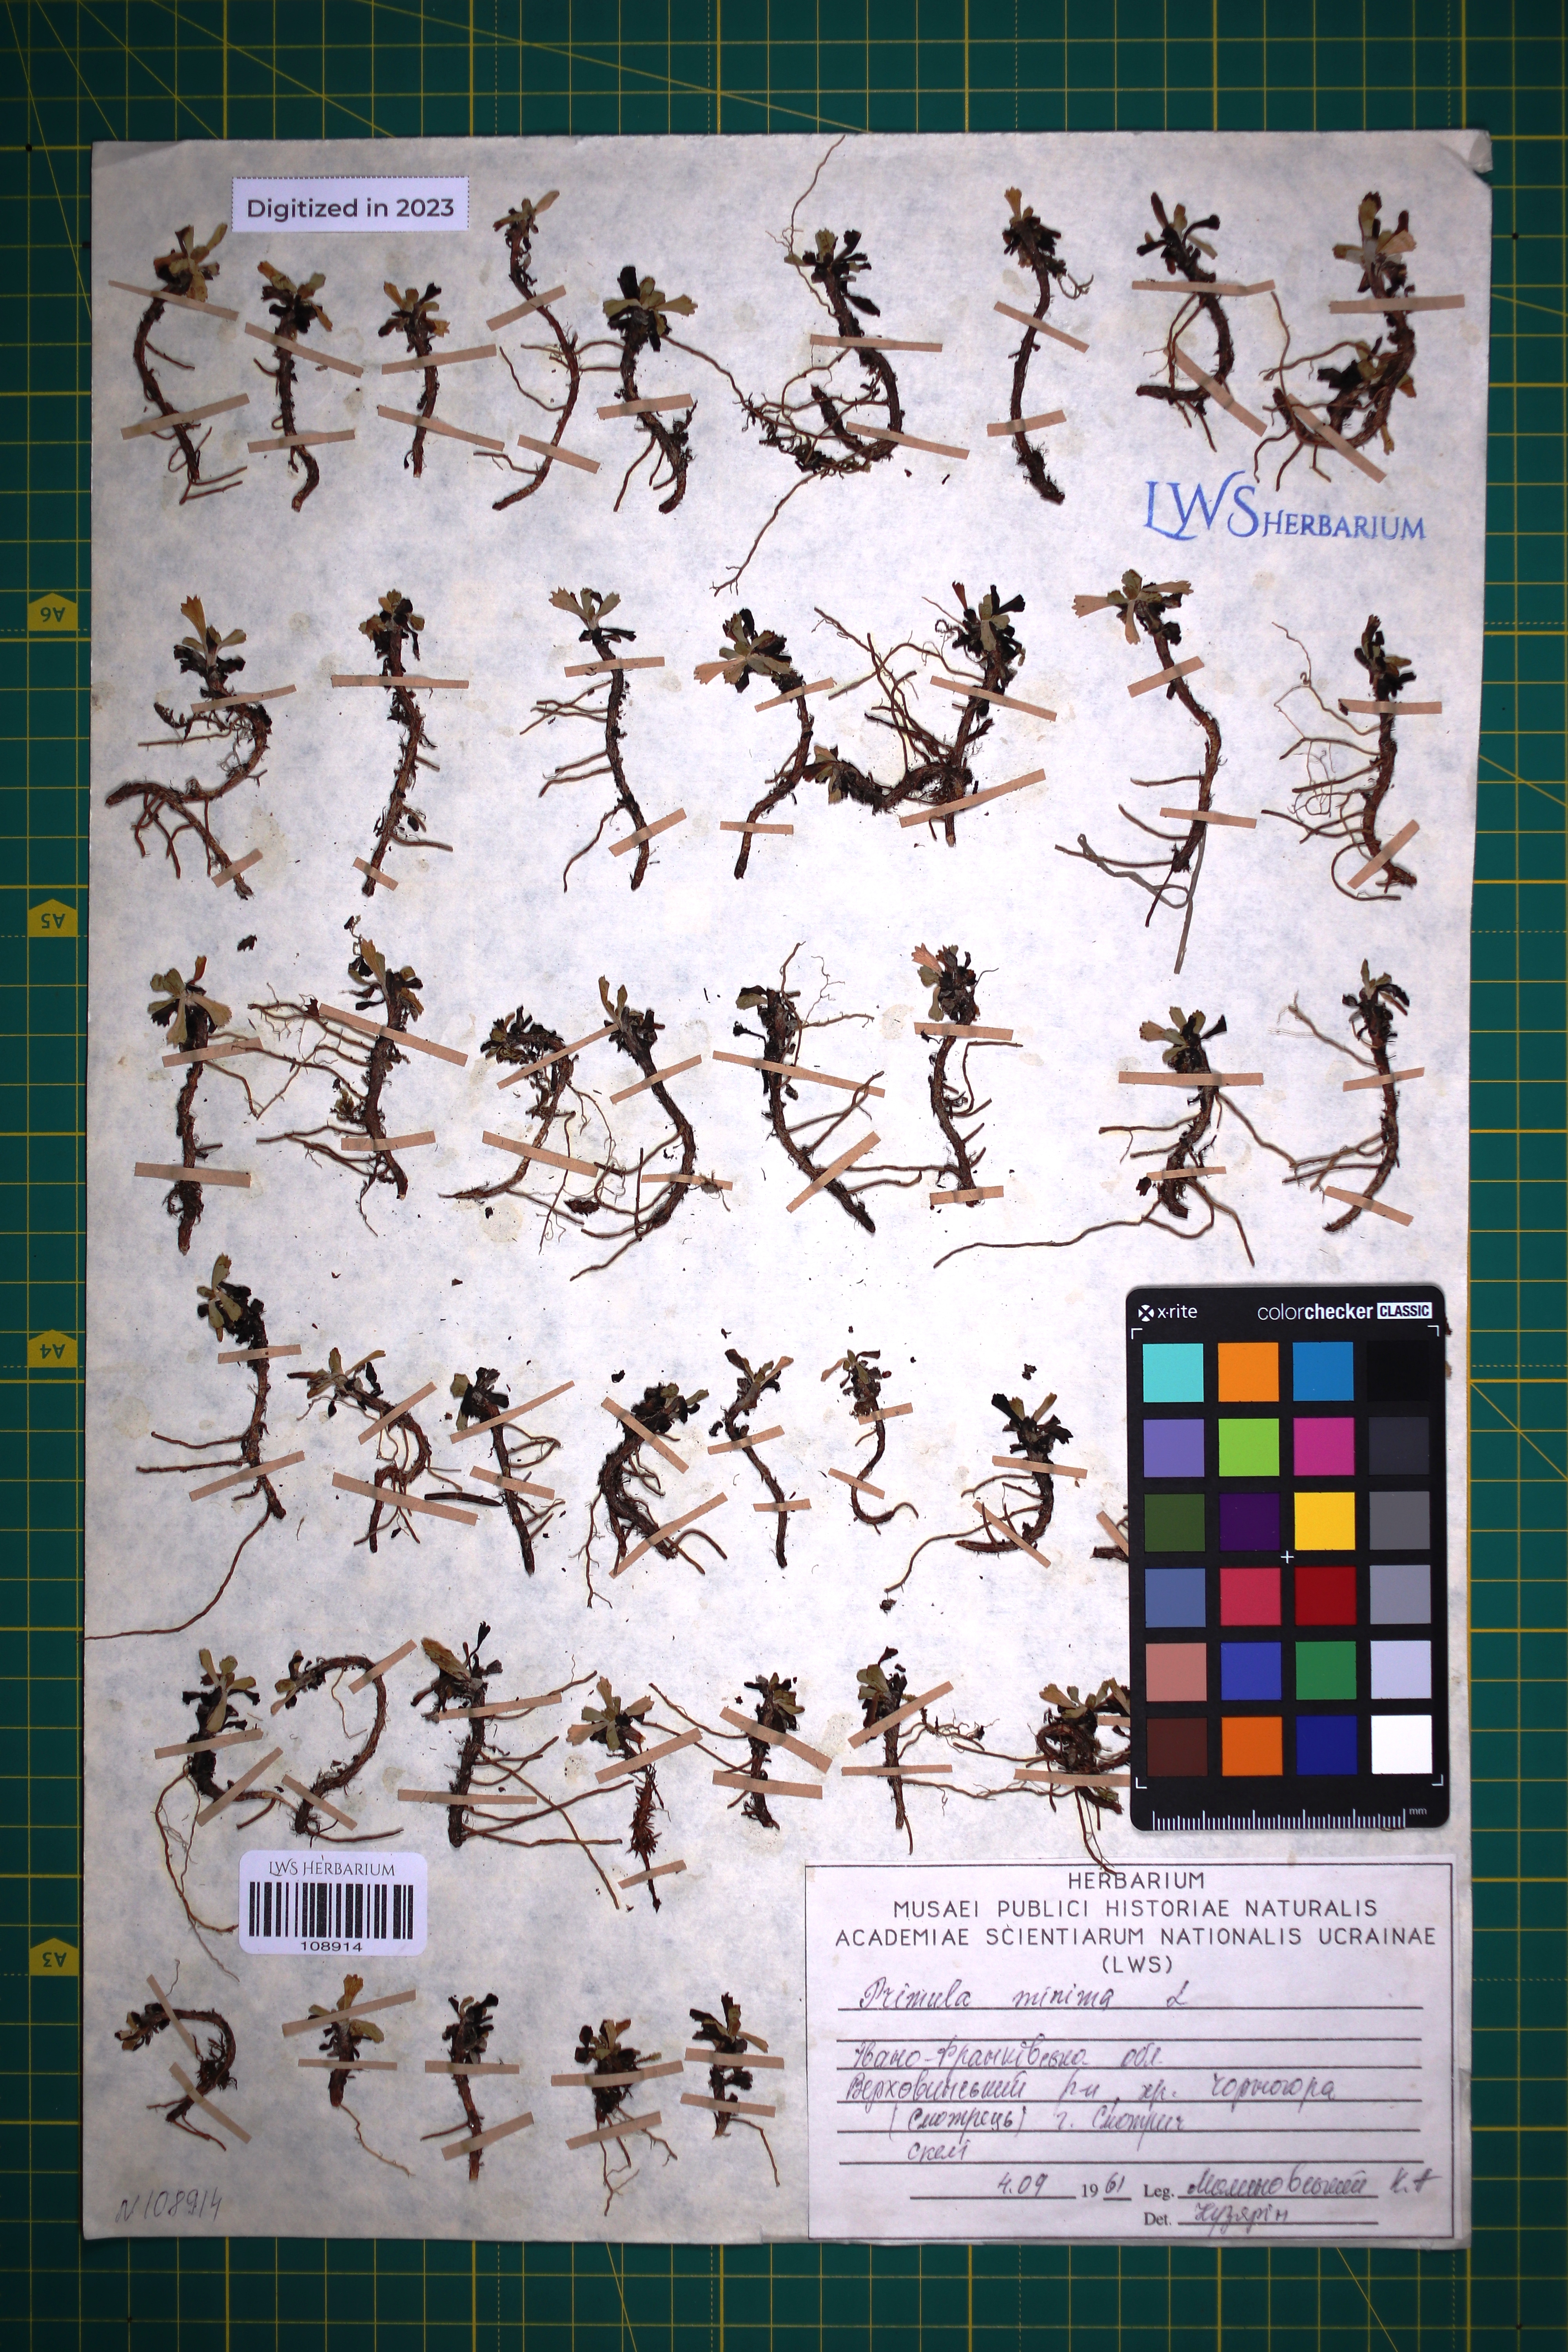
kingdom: Plantae
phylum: Tracheophyta
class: Magnoliopsida
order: Ericales
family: Primulaceae
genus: Primula
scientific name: Primula minima
